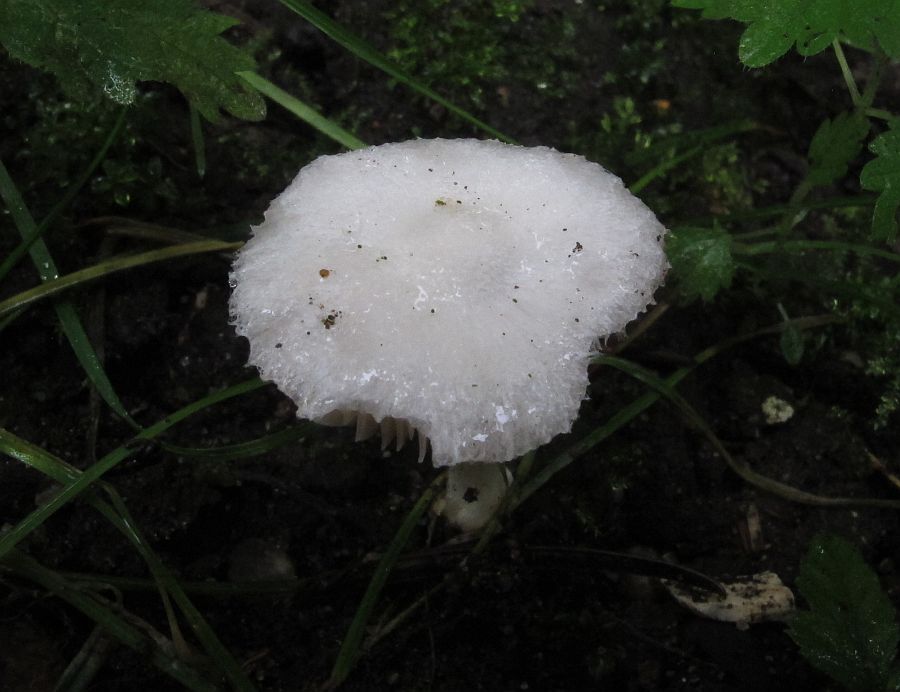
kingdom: Fungi
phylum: Basidiomycota
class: Agaricomycetes
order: Agaricales
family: Pluteaceae
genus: Volvariella
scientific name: Volvariella hypopithys
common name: dunstokket posesvamp
